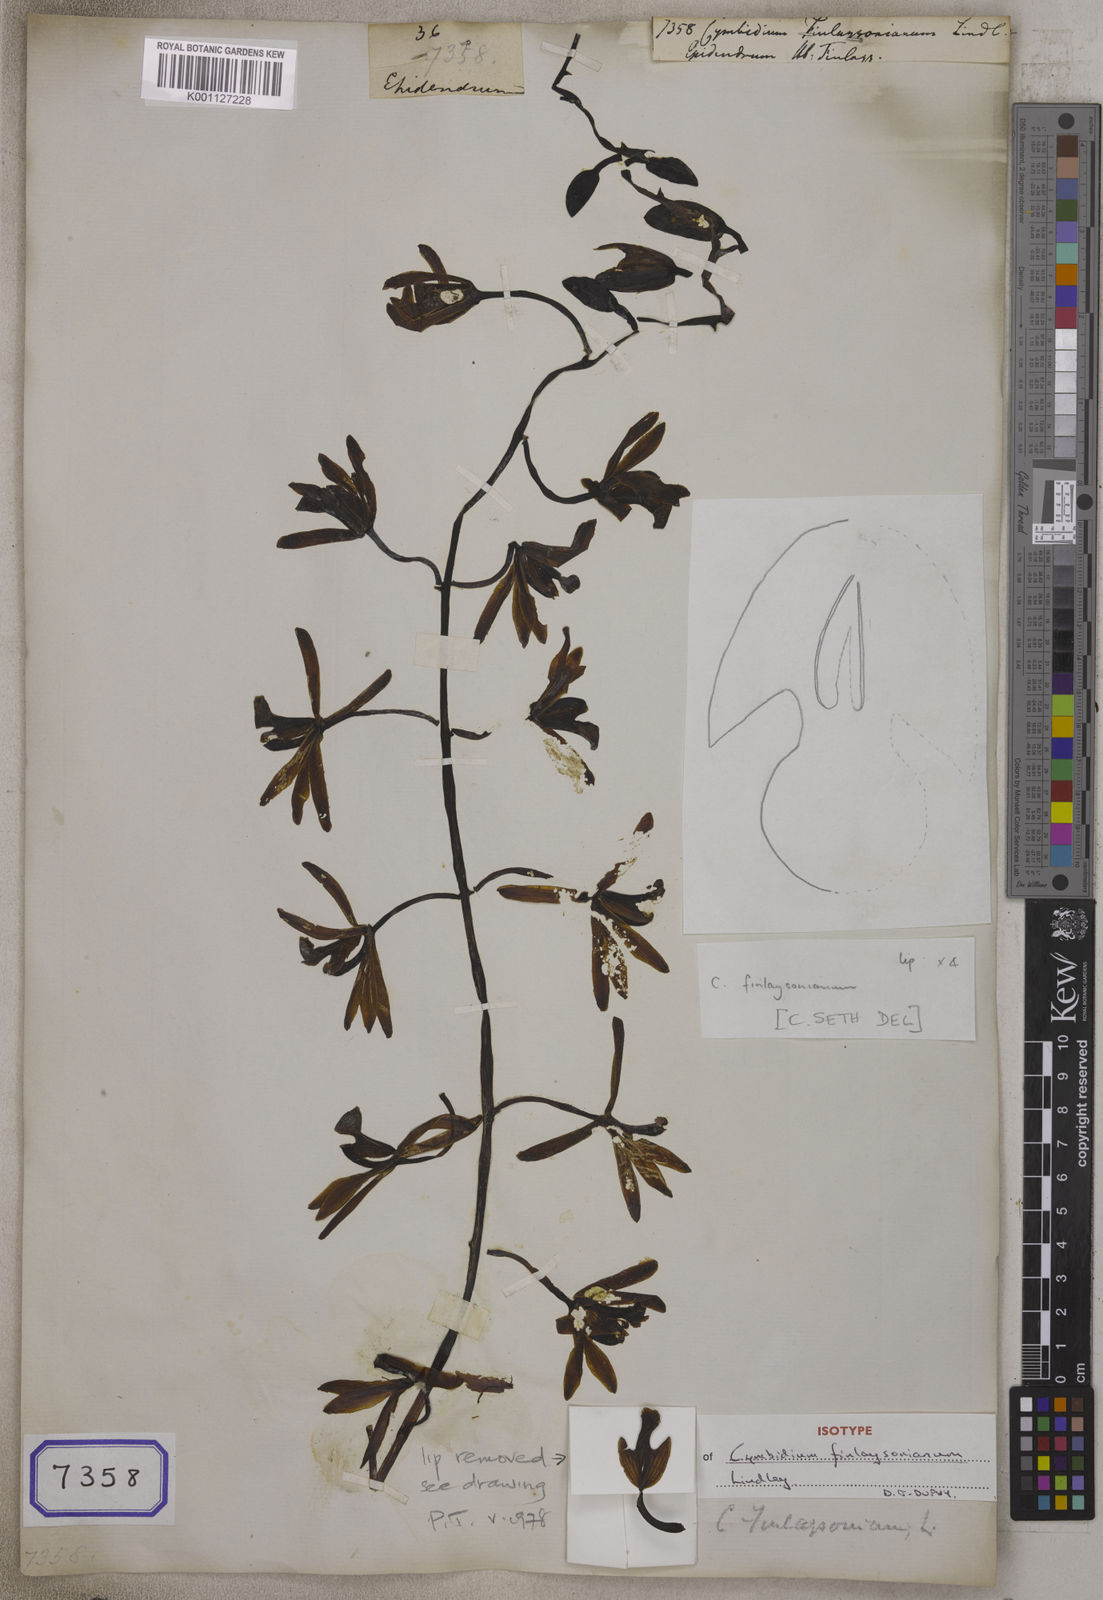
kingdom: Plantae
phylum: Tracheophyta
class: Liliopsida
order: Asparagales
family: Orchidaceae
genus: Cymbidium
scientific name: Cymbidium finlaysonianum
